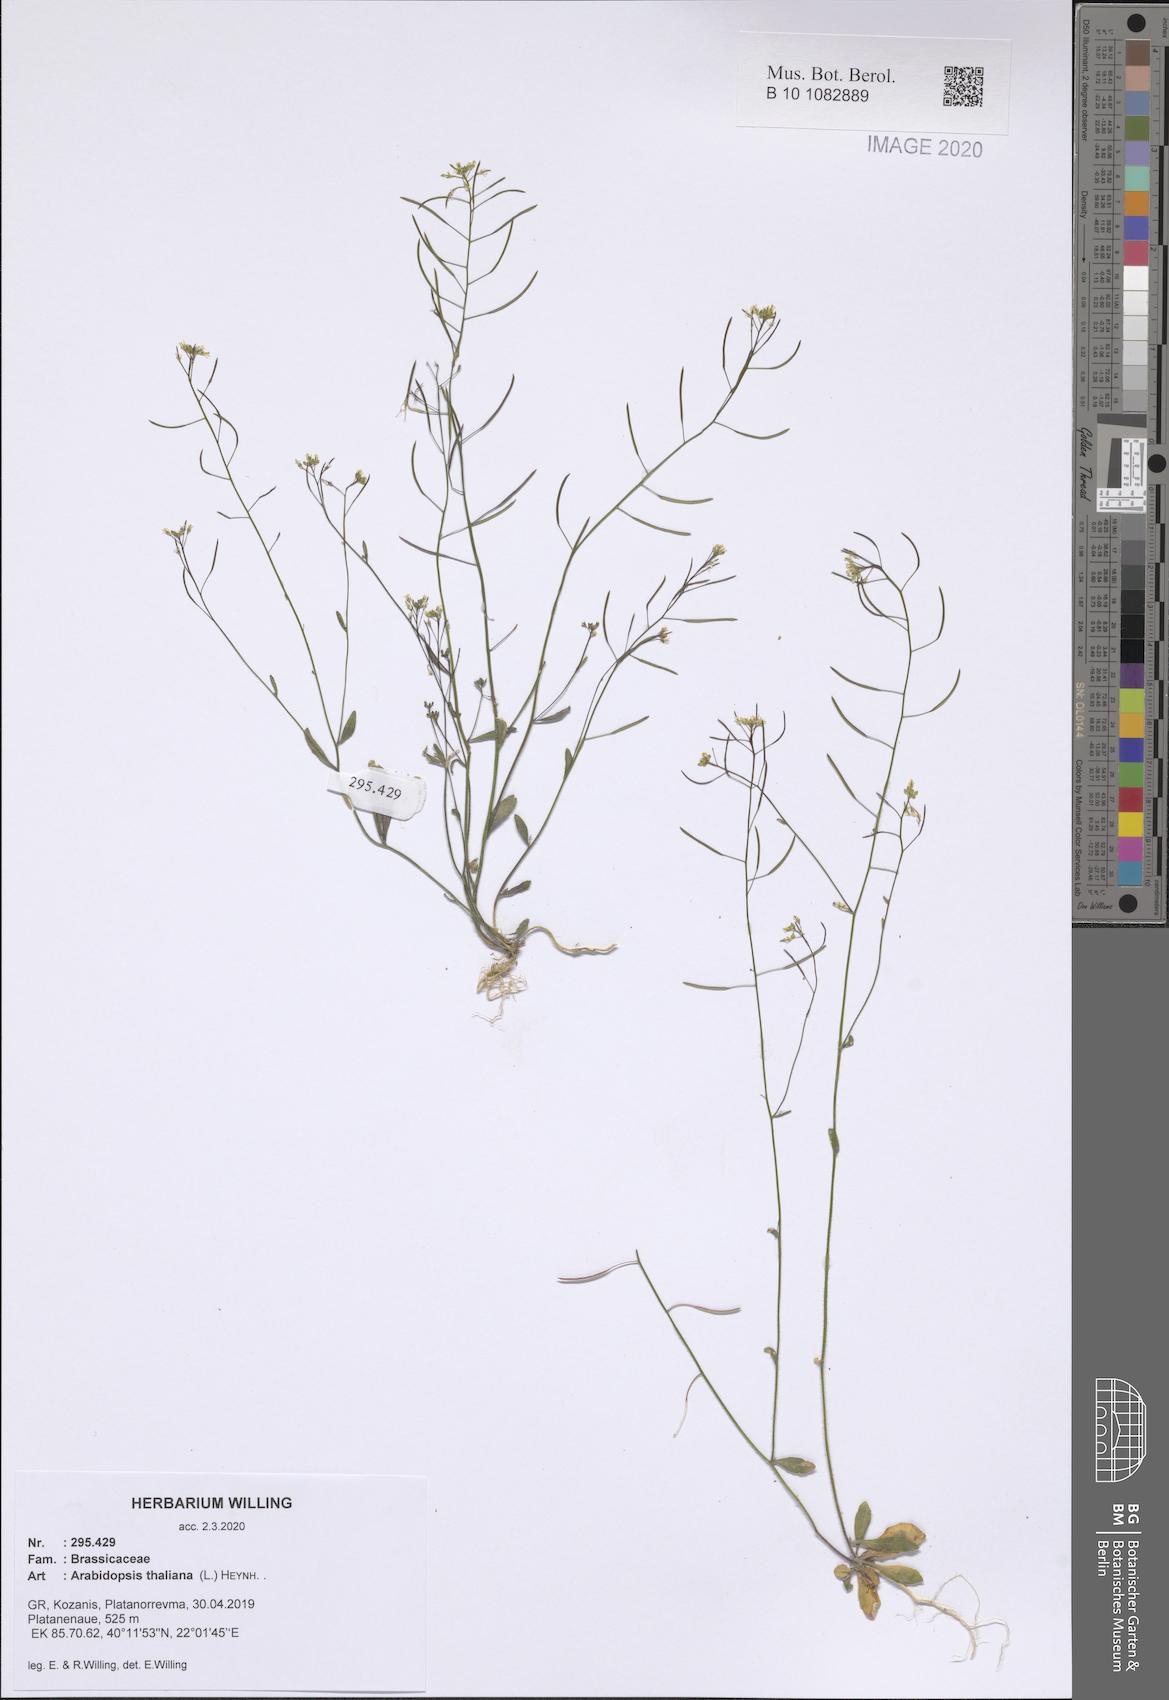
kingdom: Plantae
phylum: Tracheophyta
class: Magnoliopsida
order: Brassicales
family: Brassicaceae
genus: Arabidopsis
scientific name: Arabidopsis thaliana
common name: Thale cress
